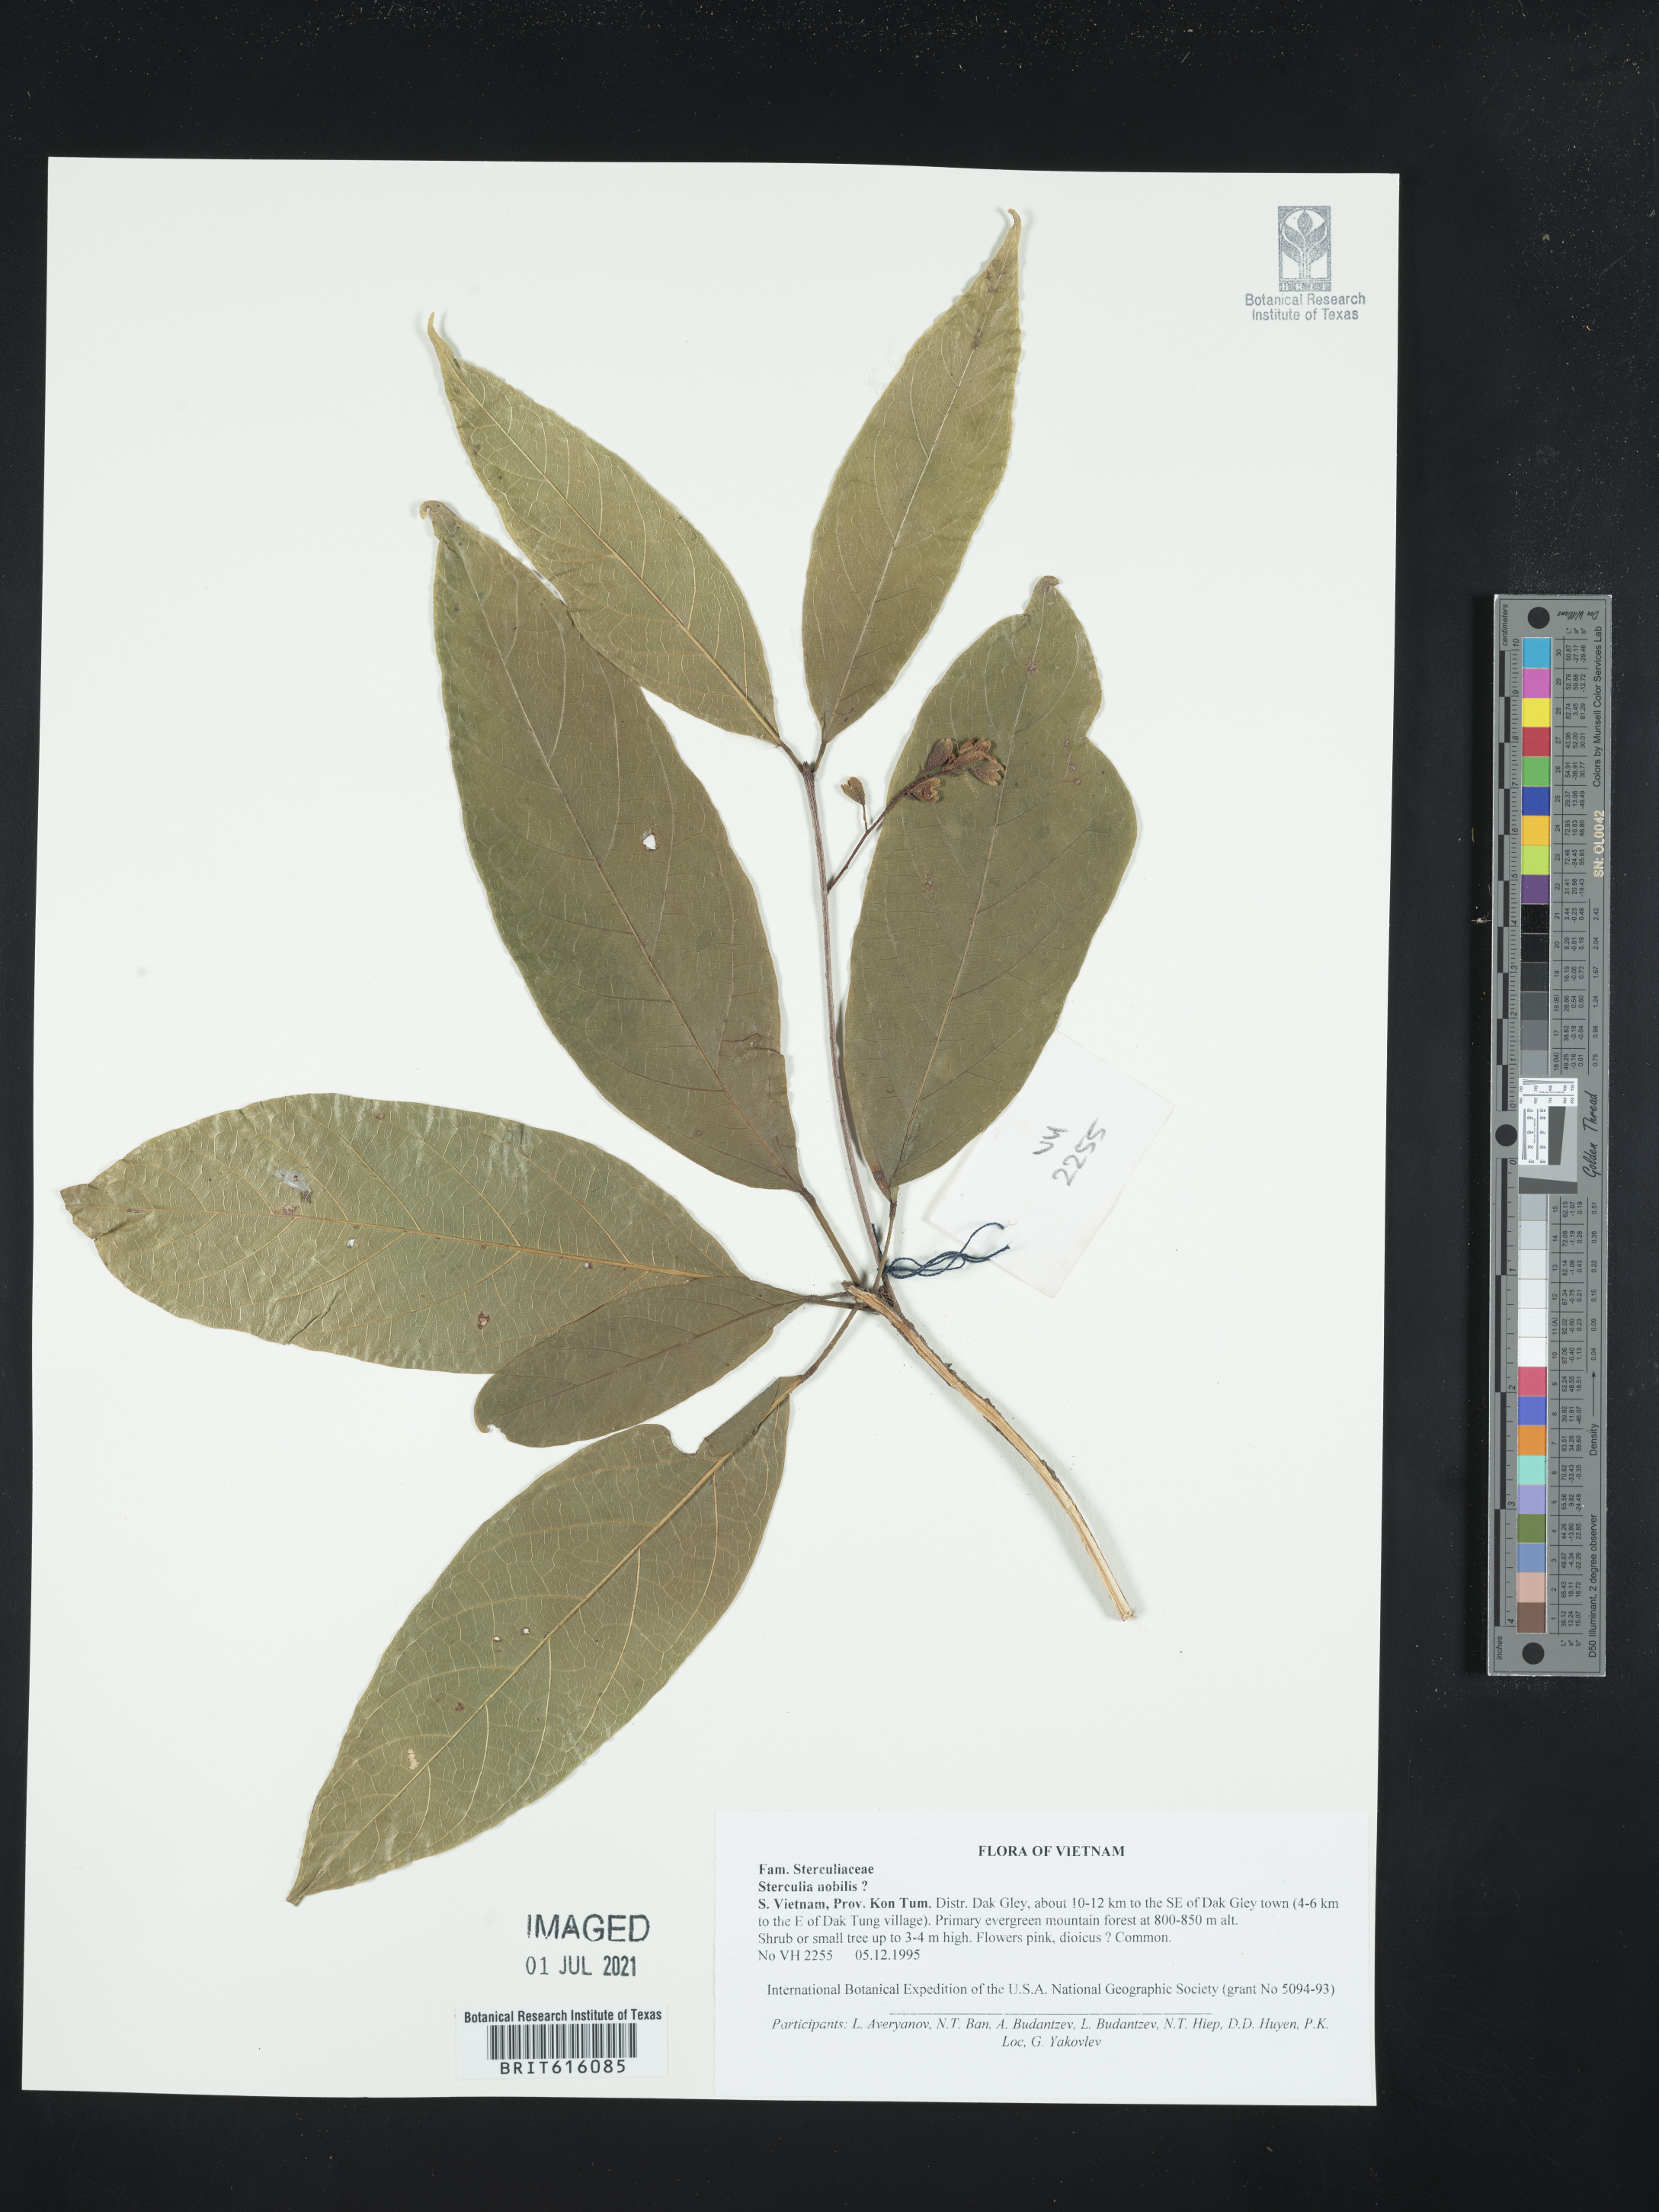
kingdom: Plantae
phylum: Tracheophyta
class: Magnoliopsida
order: Malvales
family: Malvaceae
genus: Sterculia
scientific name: Sterculia monosperma
